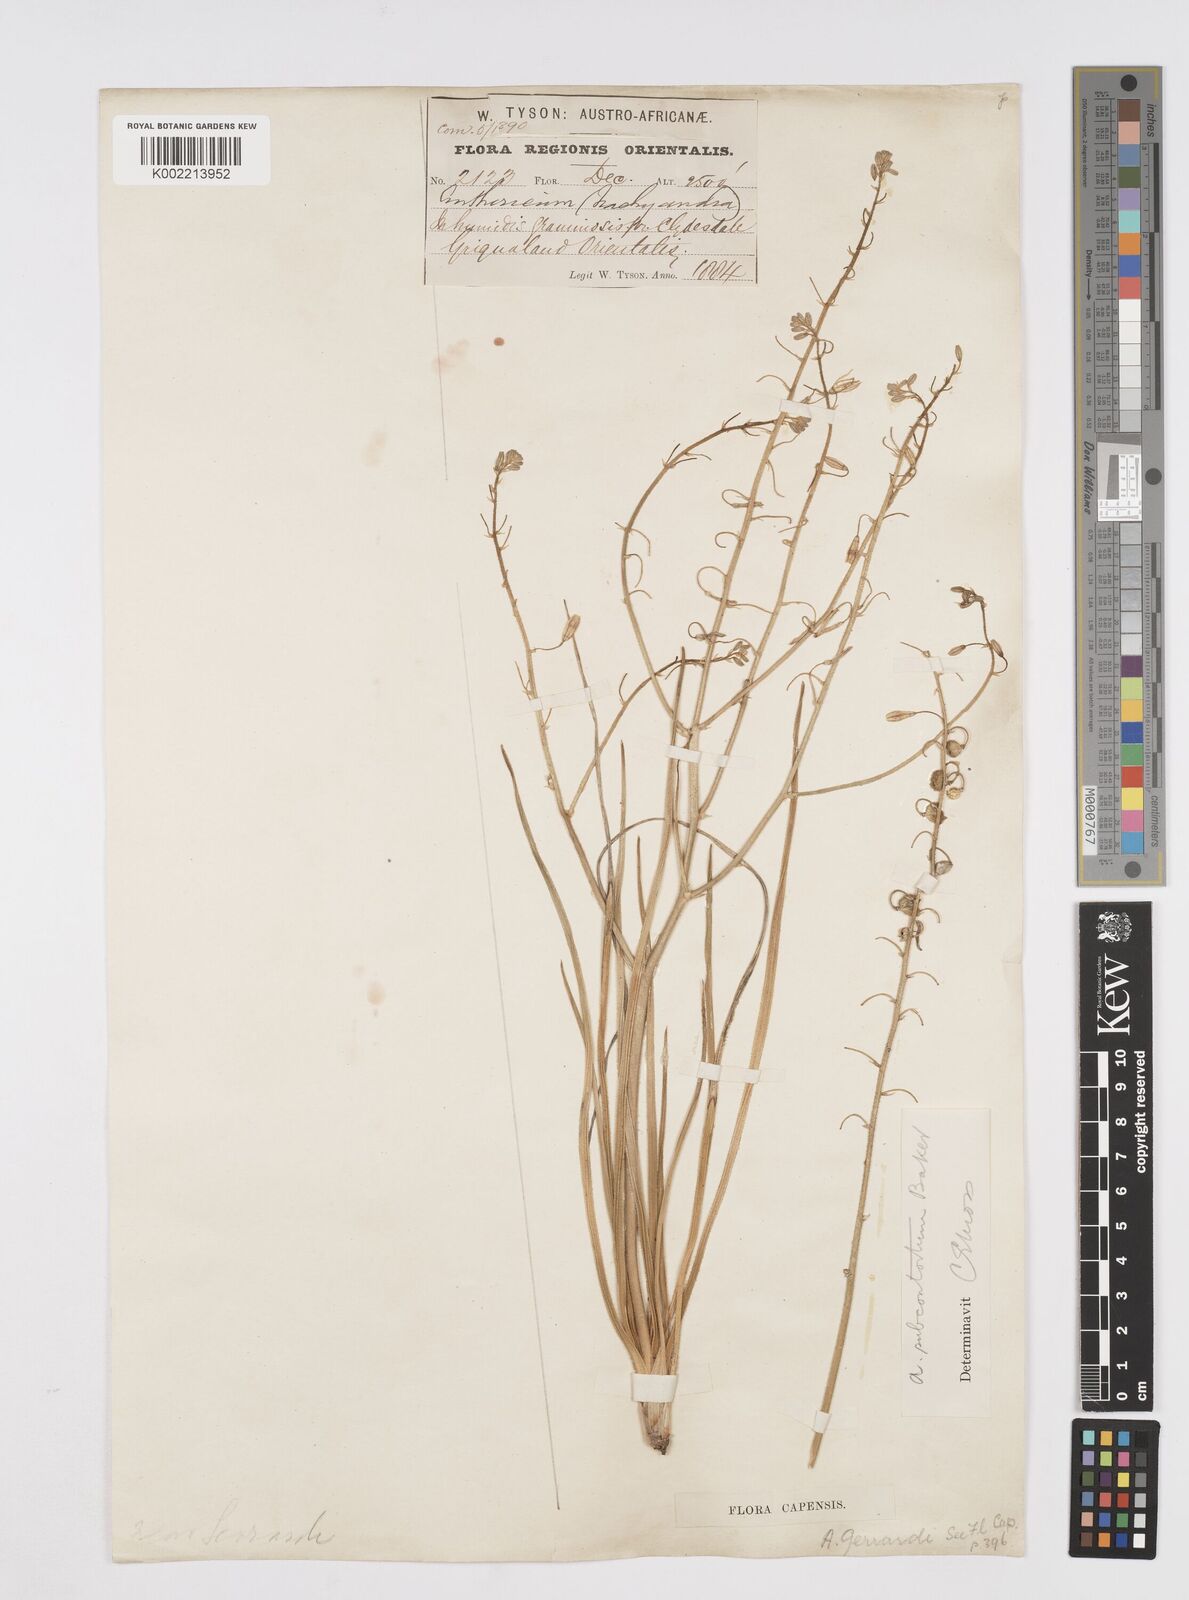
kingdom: Plantae
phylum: Tracheophyta
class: Liliopsida
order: Asparagales
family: Asphodelaceae
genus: Trachyandra
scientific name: Trachyandra asperata
